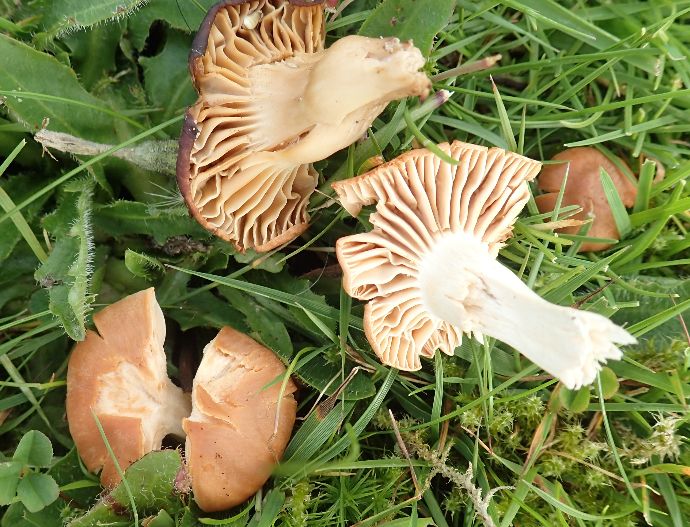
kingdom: Fungi
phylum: Basidiomycota
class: Agaricomycetes
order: Agaricales
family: Hygrophoraceae
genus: Cuphophyllus
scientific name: Cuphophyllus pratensis
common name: eng-vokshat
